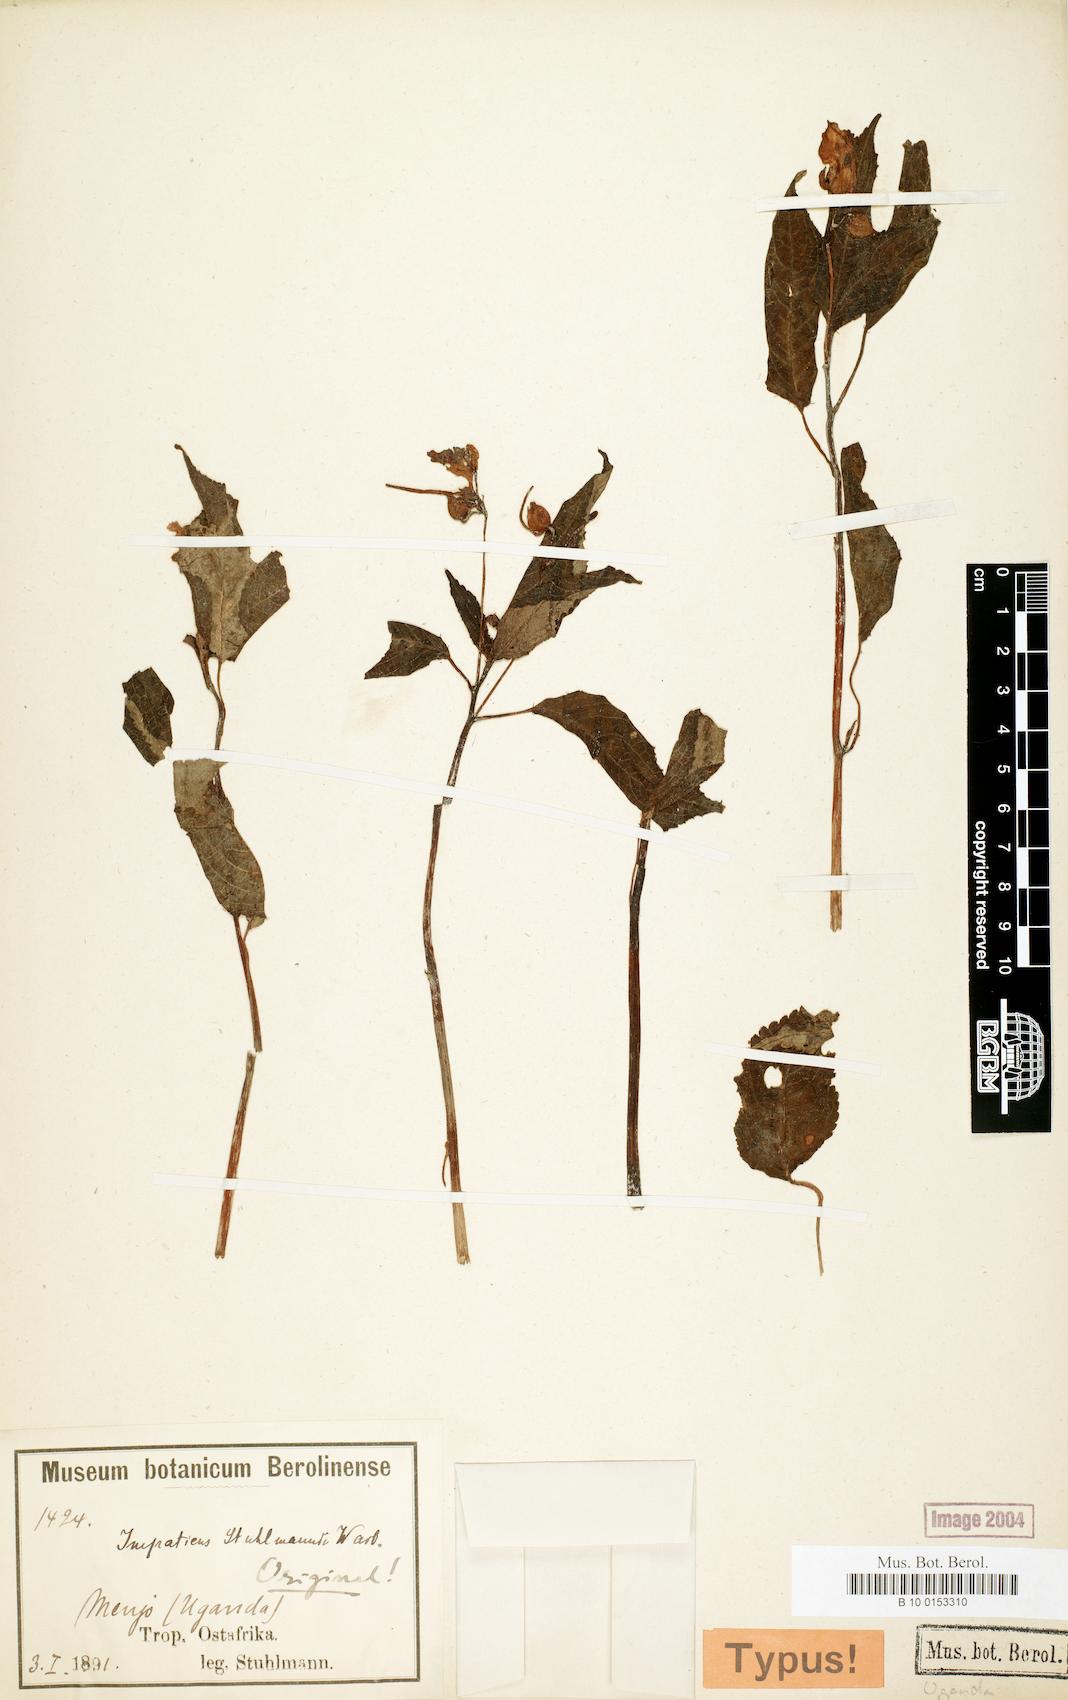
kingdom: Plantae
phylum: Tracheophyta
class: Magnoliopsida
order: Ericales
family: Balsaminaceae
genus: Impatiens
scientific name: Impatiens stuhlmannii
